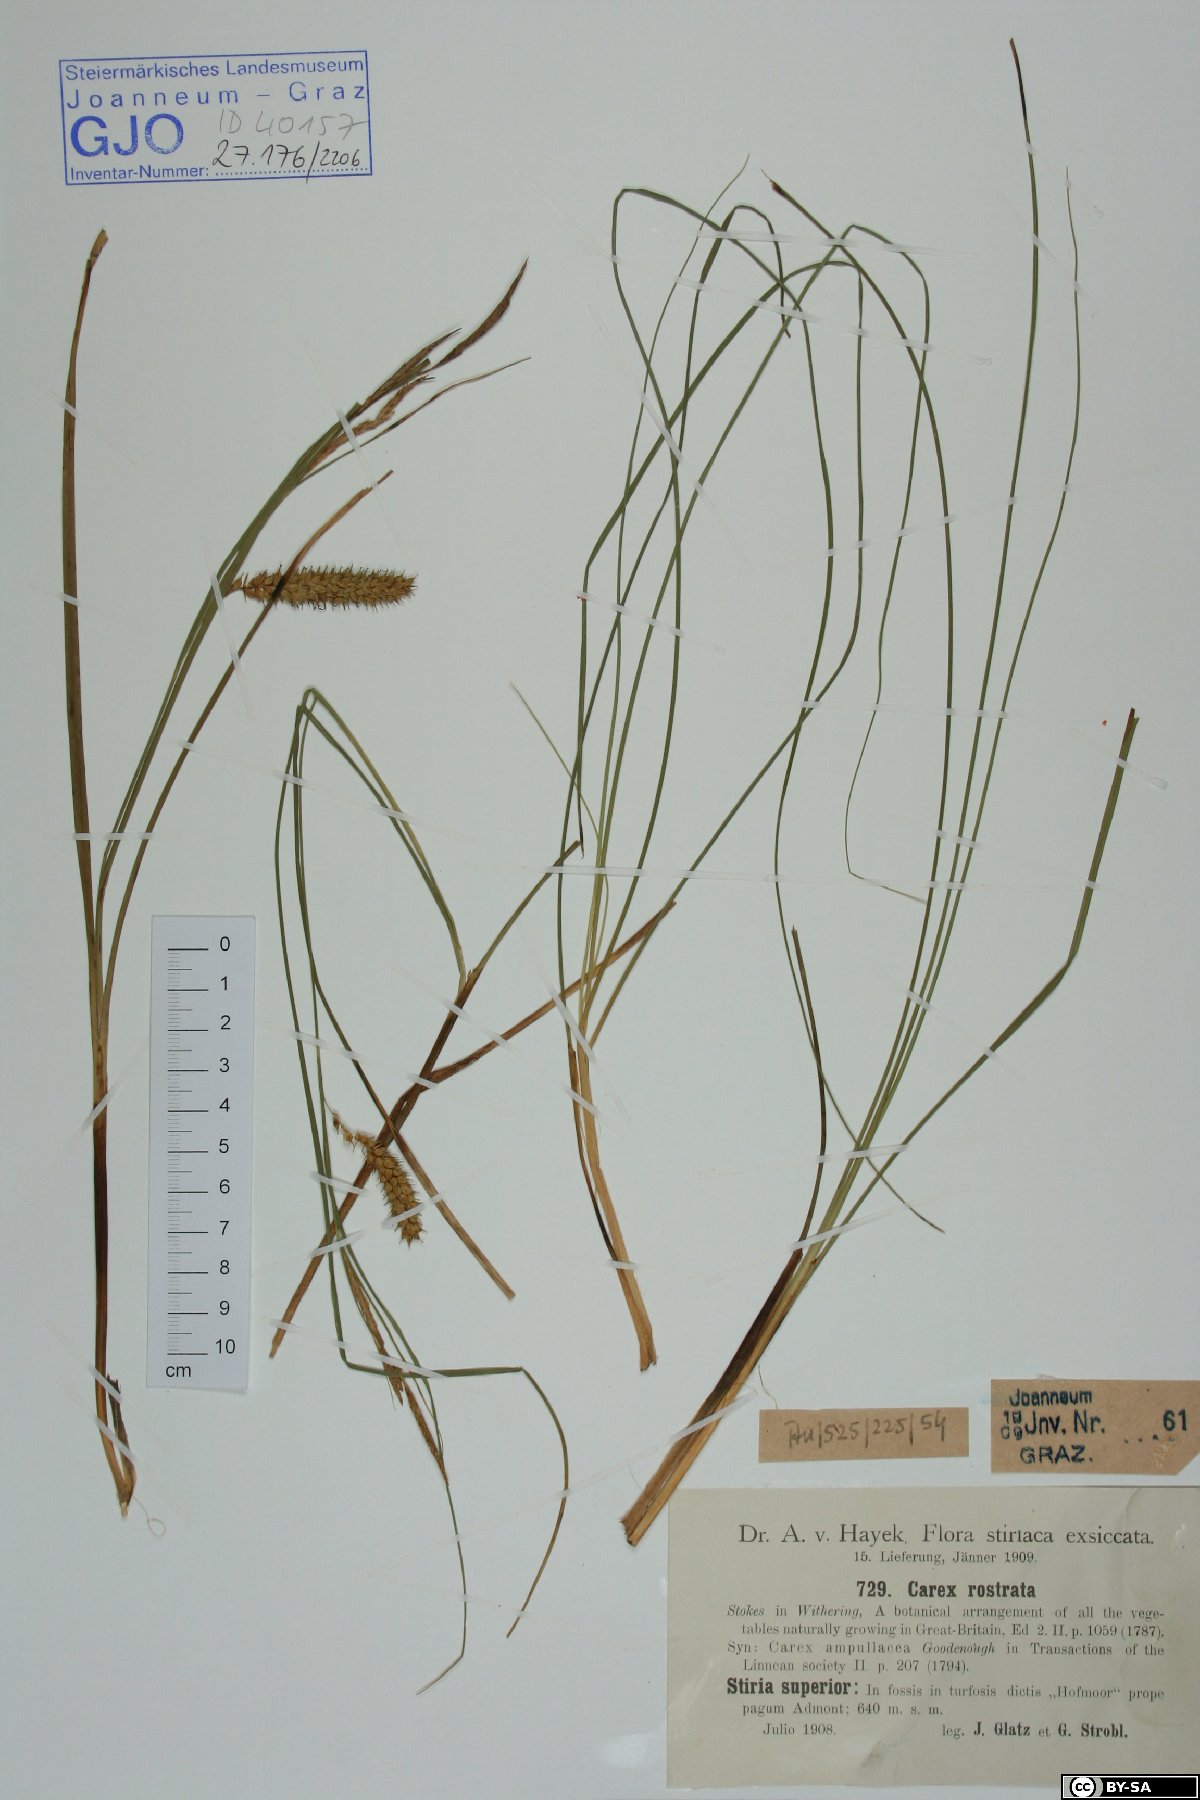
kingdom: Plantae
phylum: Tracheophyta
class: Liliopsida
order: Poales
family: Cyperaceae
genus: Carex
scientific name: Carex rostrata
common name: Bottle sedge
